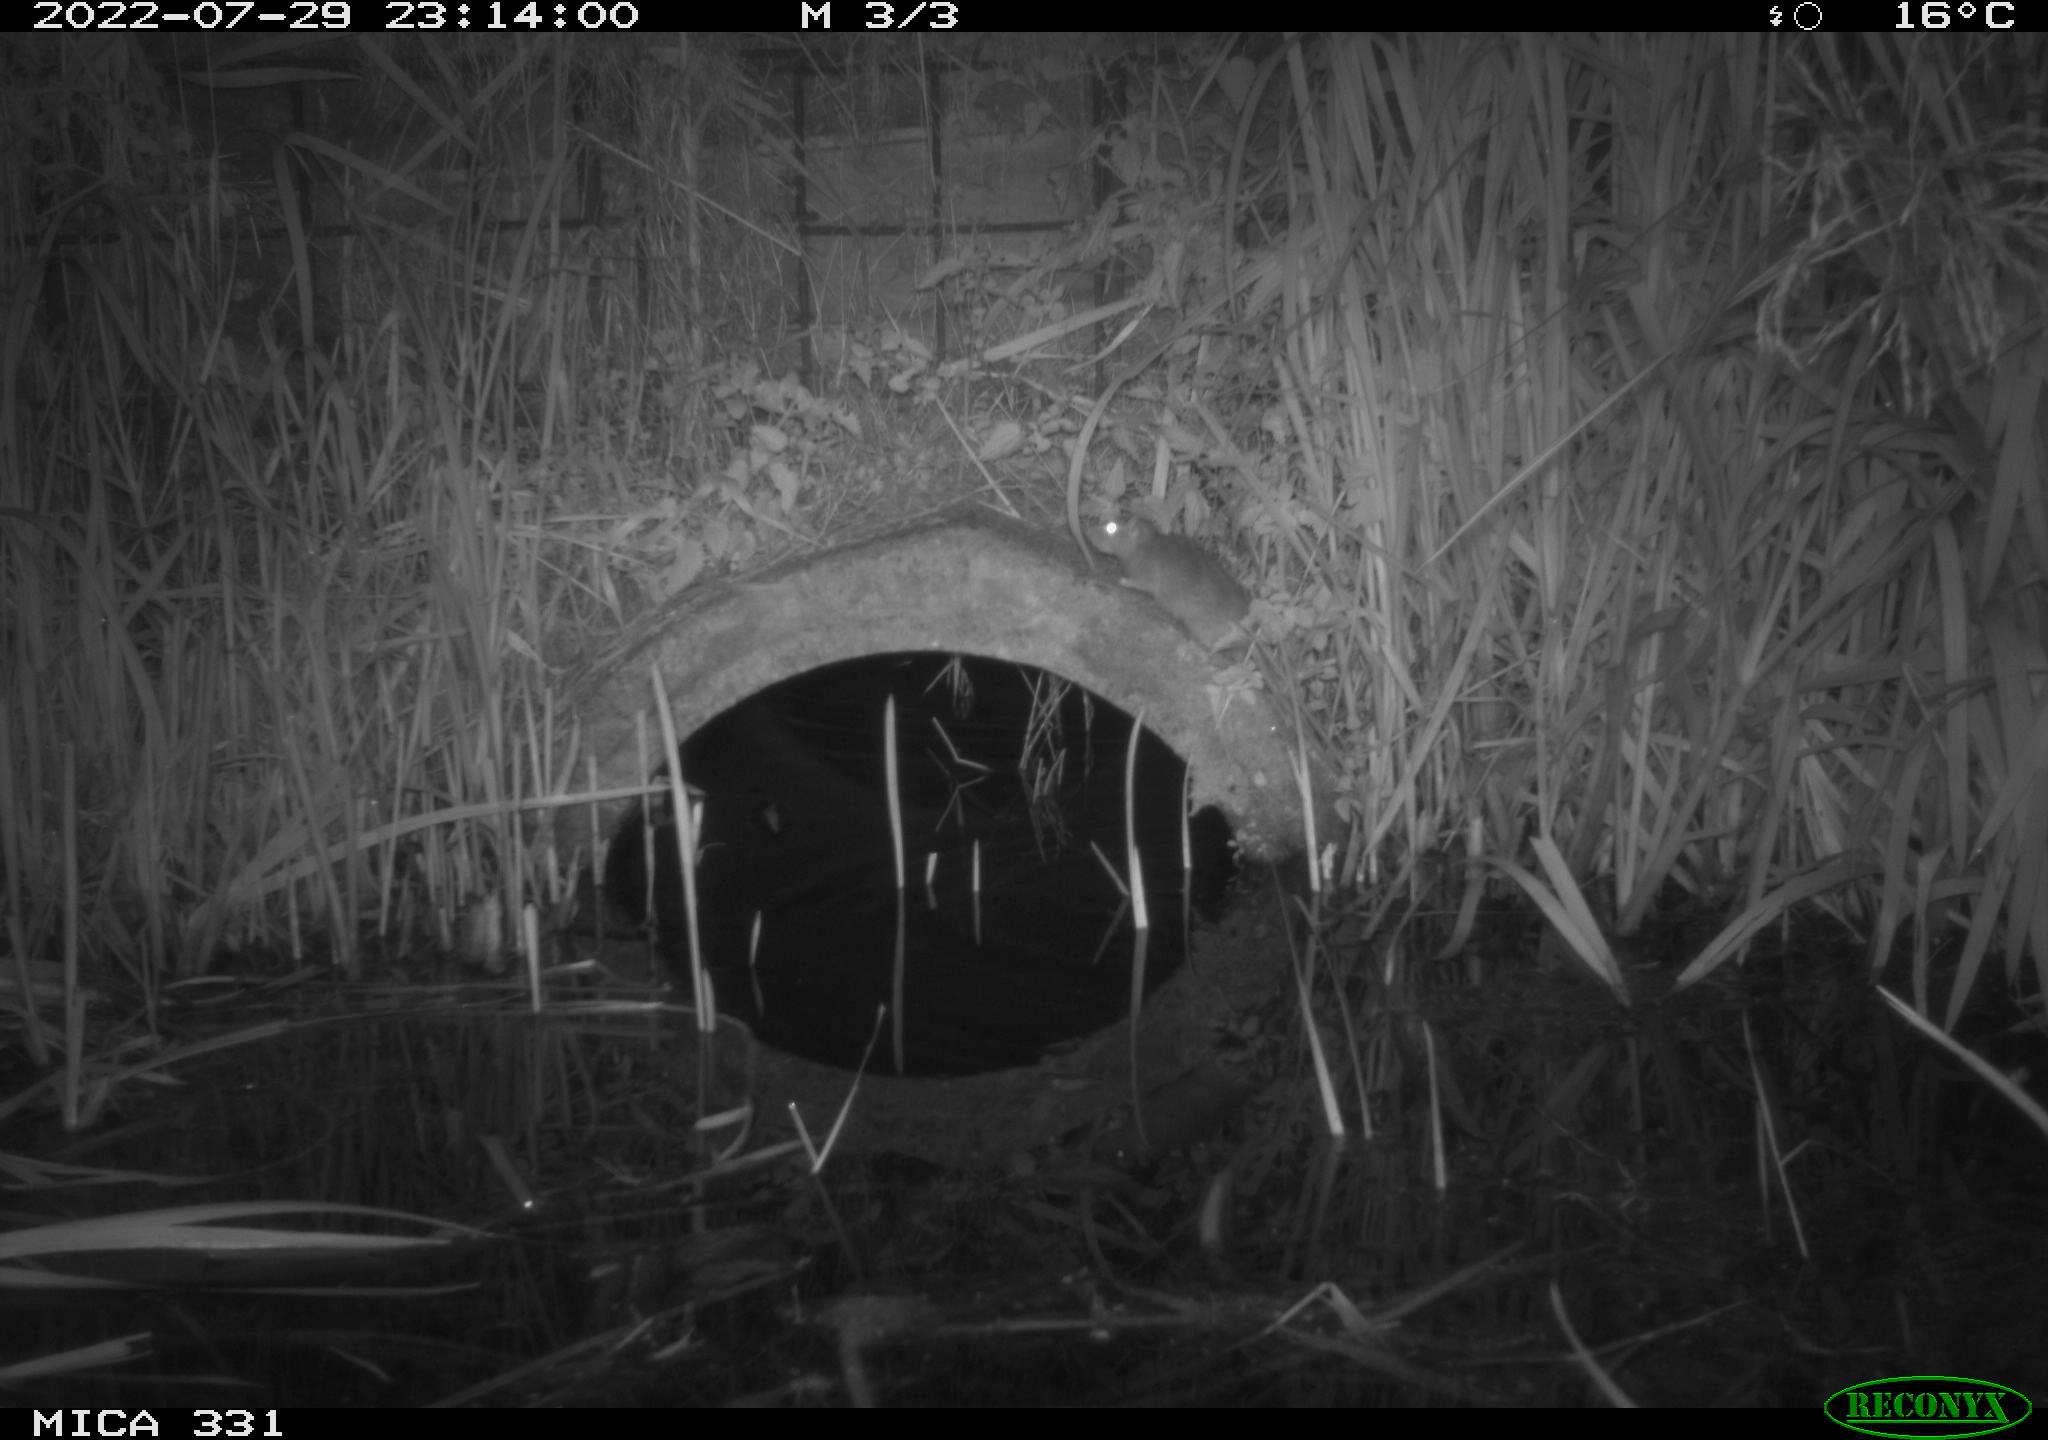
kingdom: Animalia
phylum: Chordata
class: Mammalia
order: Rodentia
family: Muridae
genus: Rattus
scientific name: Rattus norvegicus
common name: Brown rat
